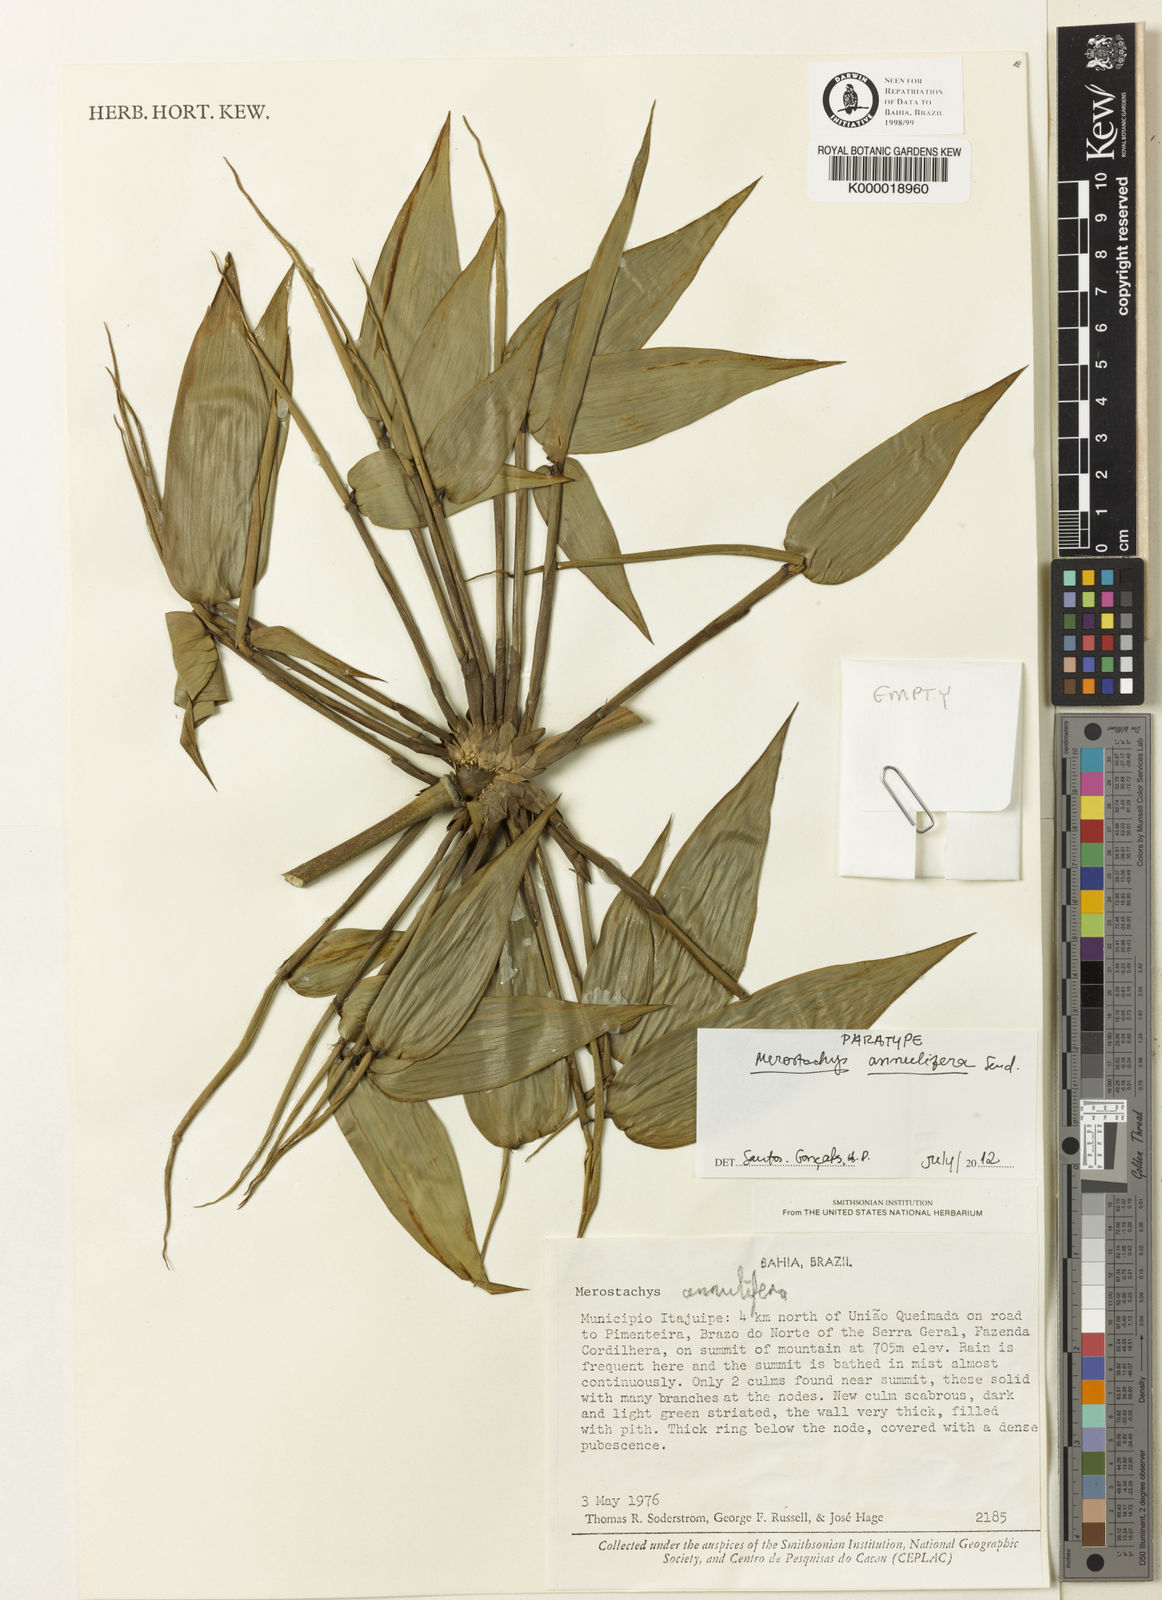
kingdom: Plantae
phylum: Tracheophyta
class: Liliopsida
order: Poales
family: Poaceae
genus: Merostachys
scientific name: Merostachys annulifera
